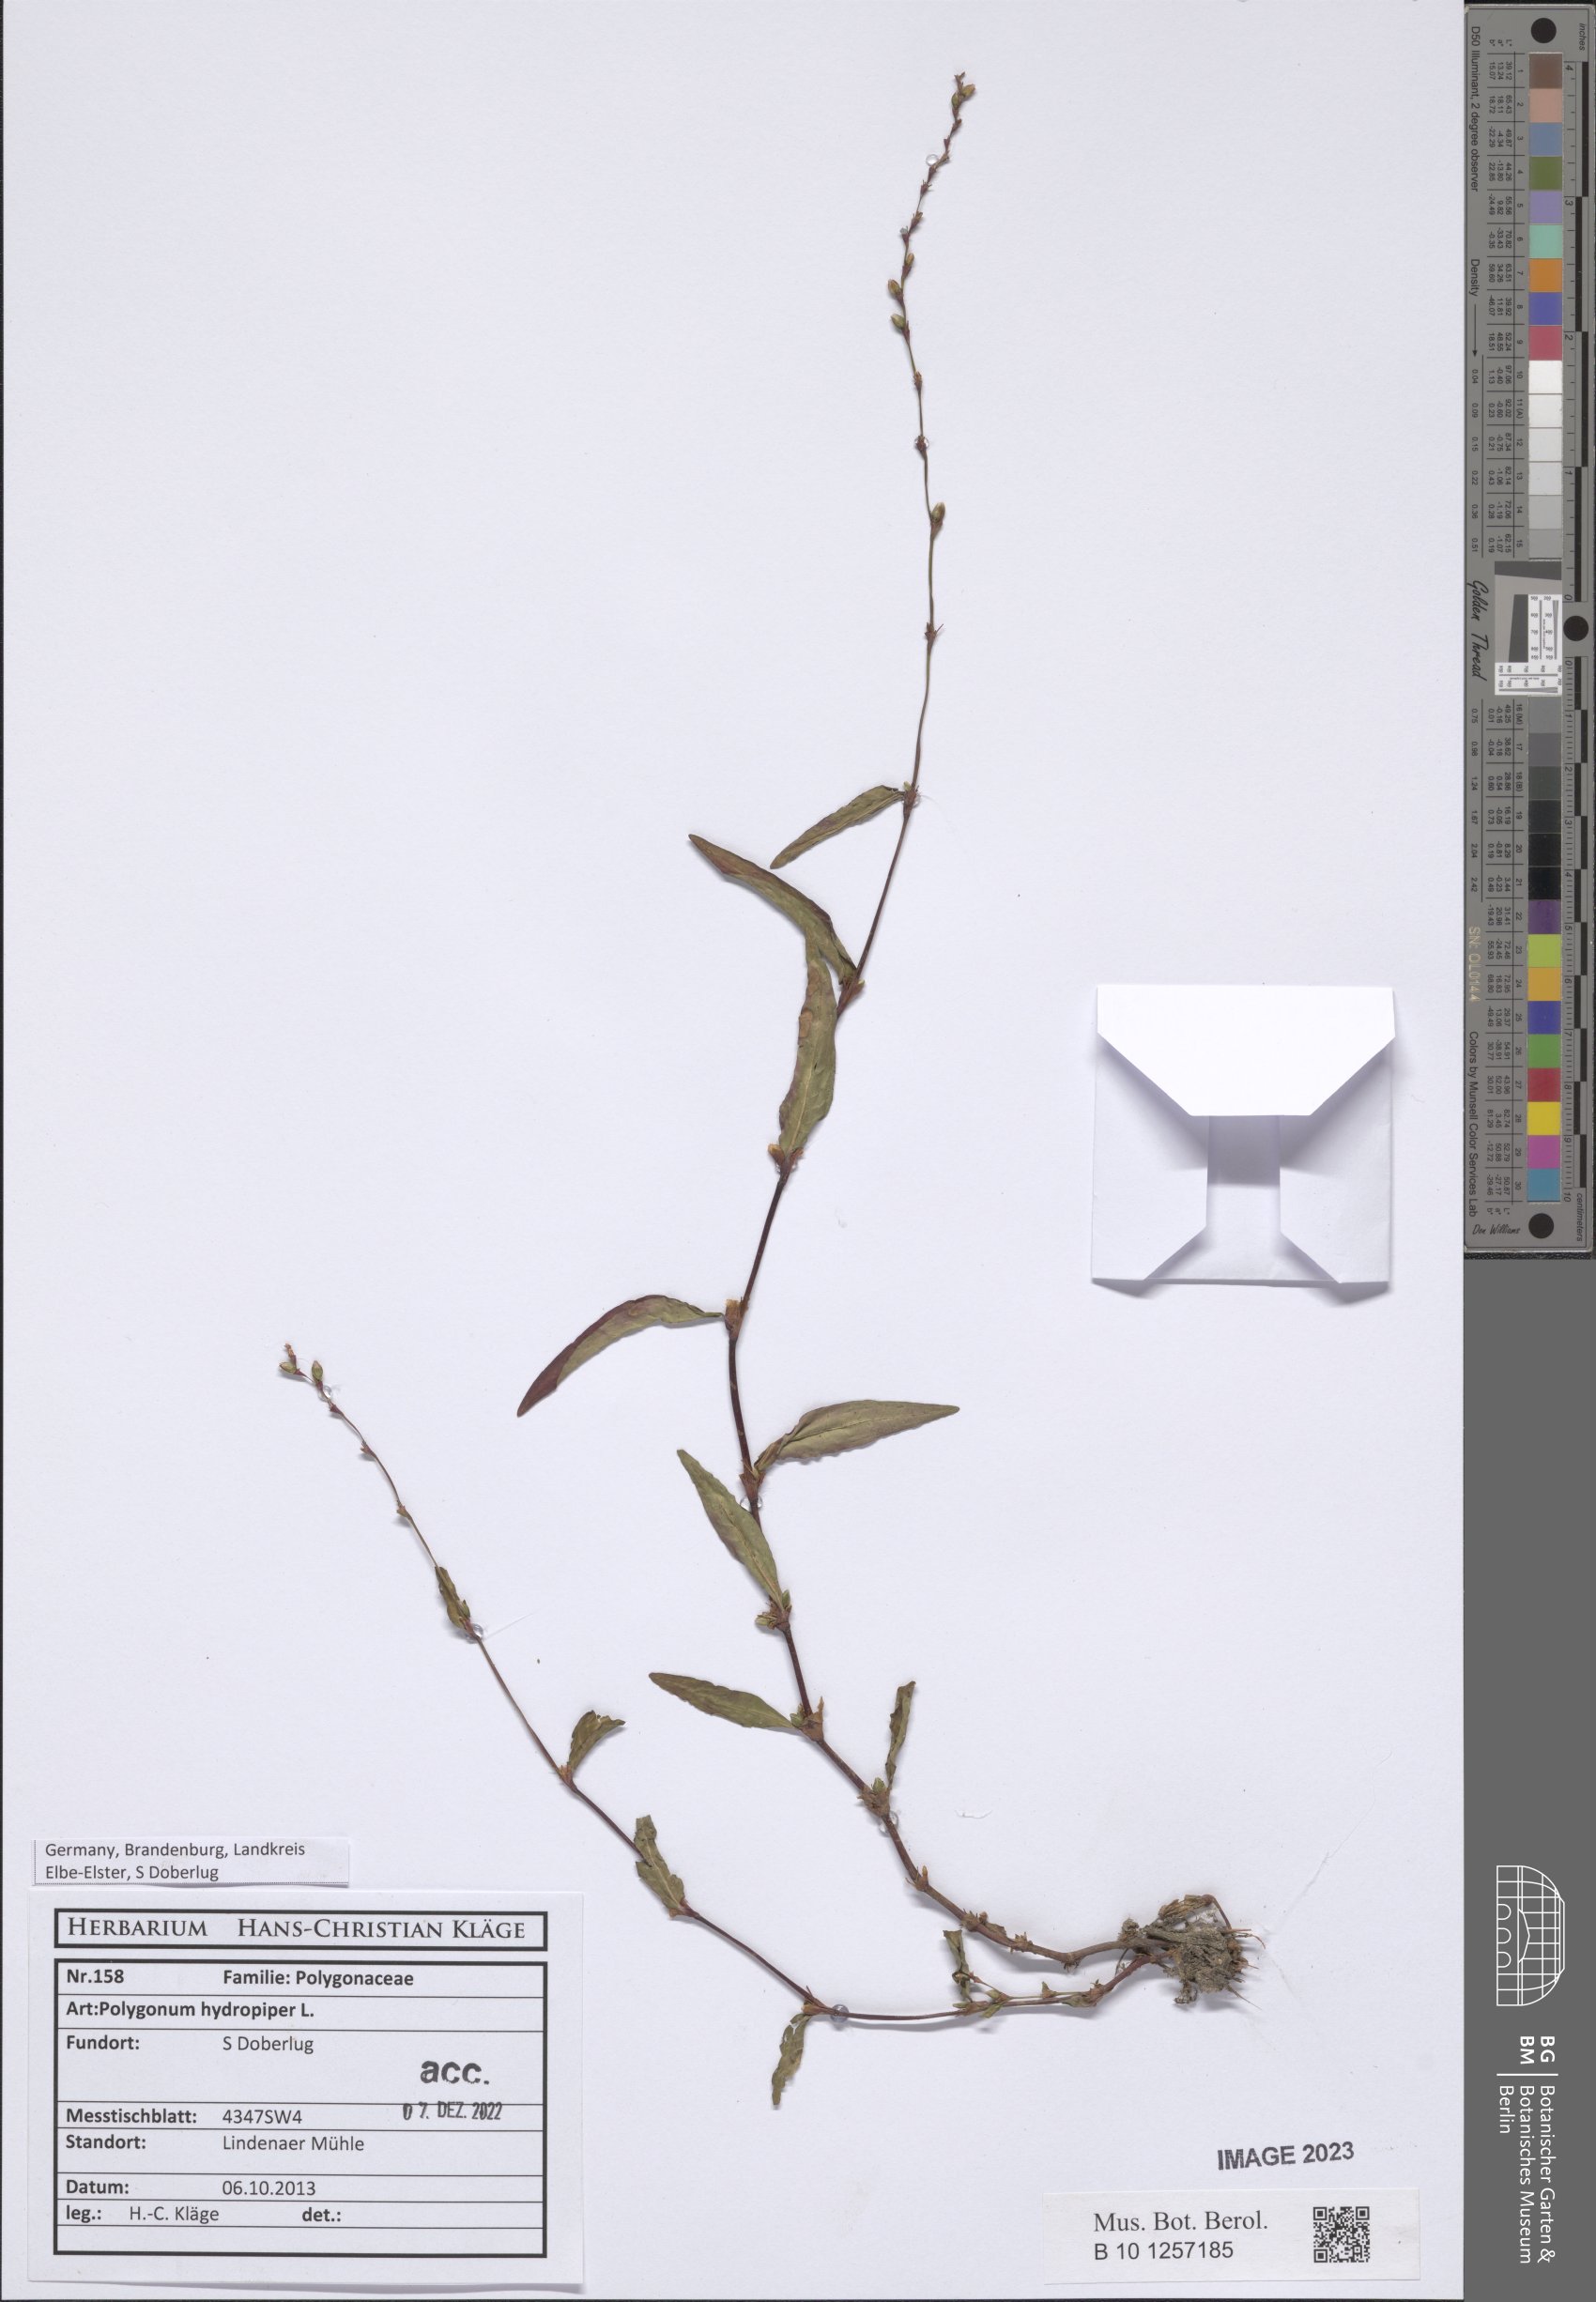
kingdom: Plantae
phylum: Tracheophyta
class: Magnoliopsida
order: Caryophyllales
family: Polygonaceae
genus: Persicaria
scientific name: Persicaria hydropiper
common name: Water-pepper
